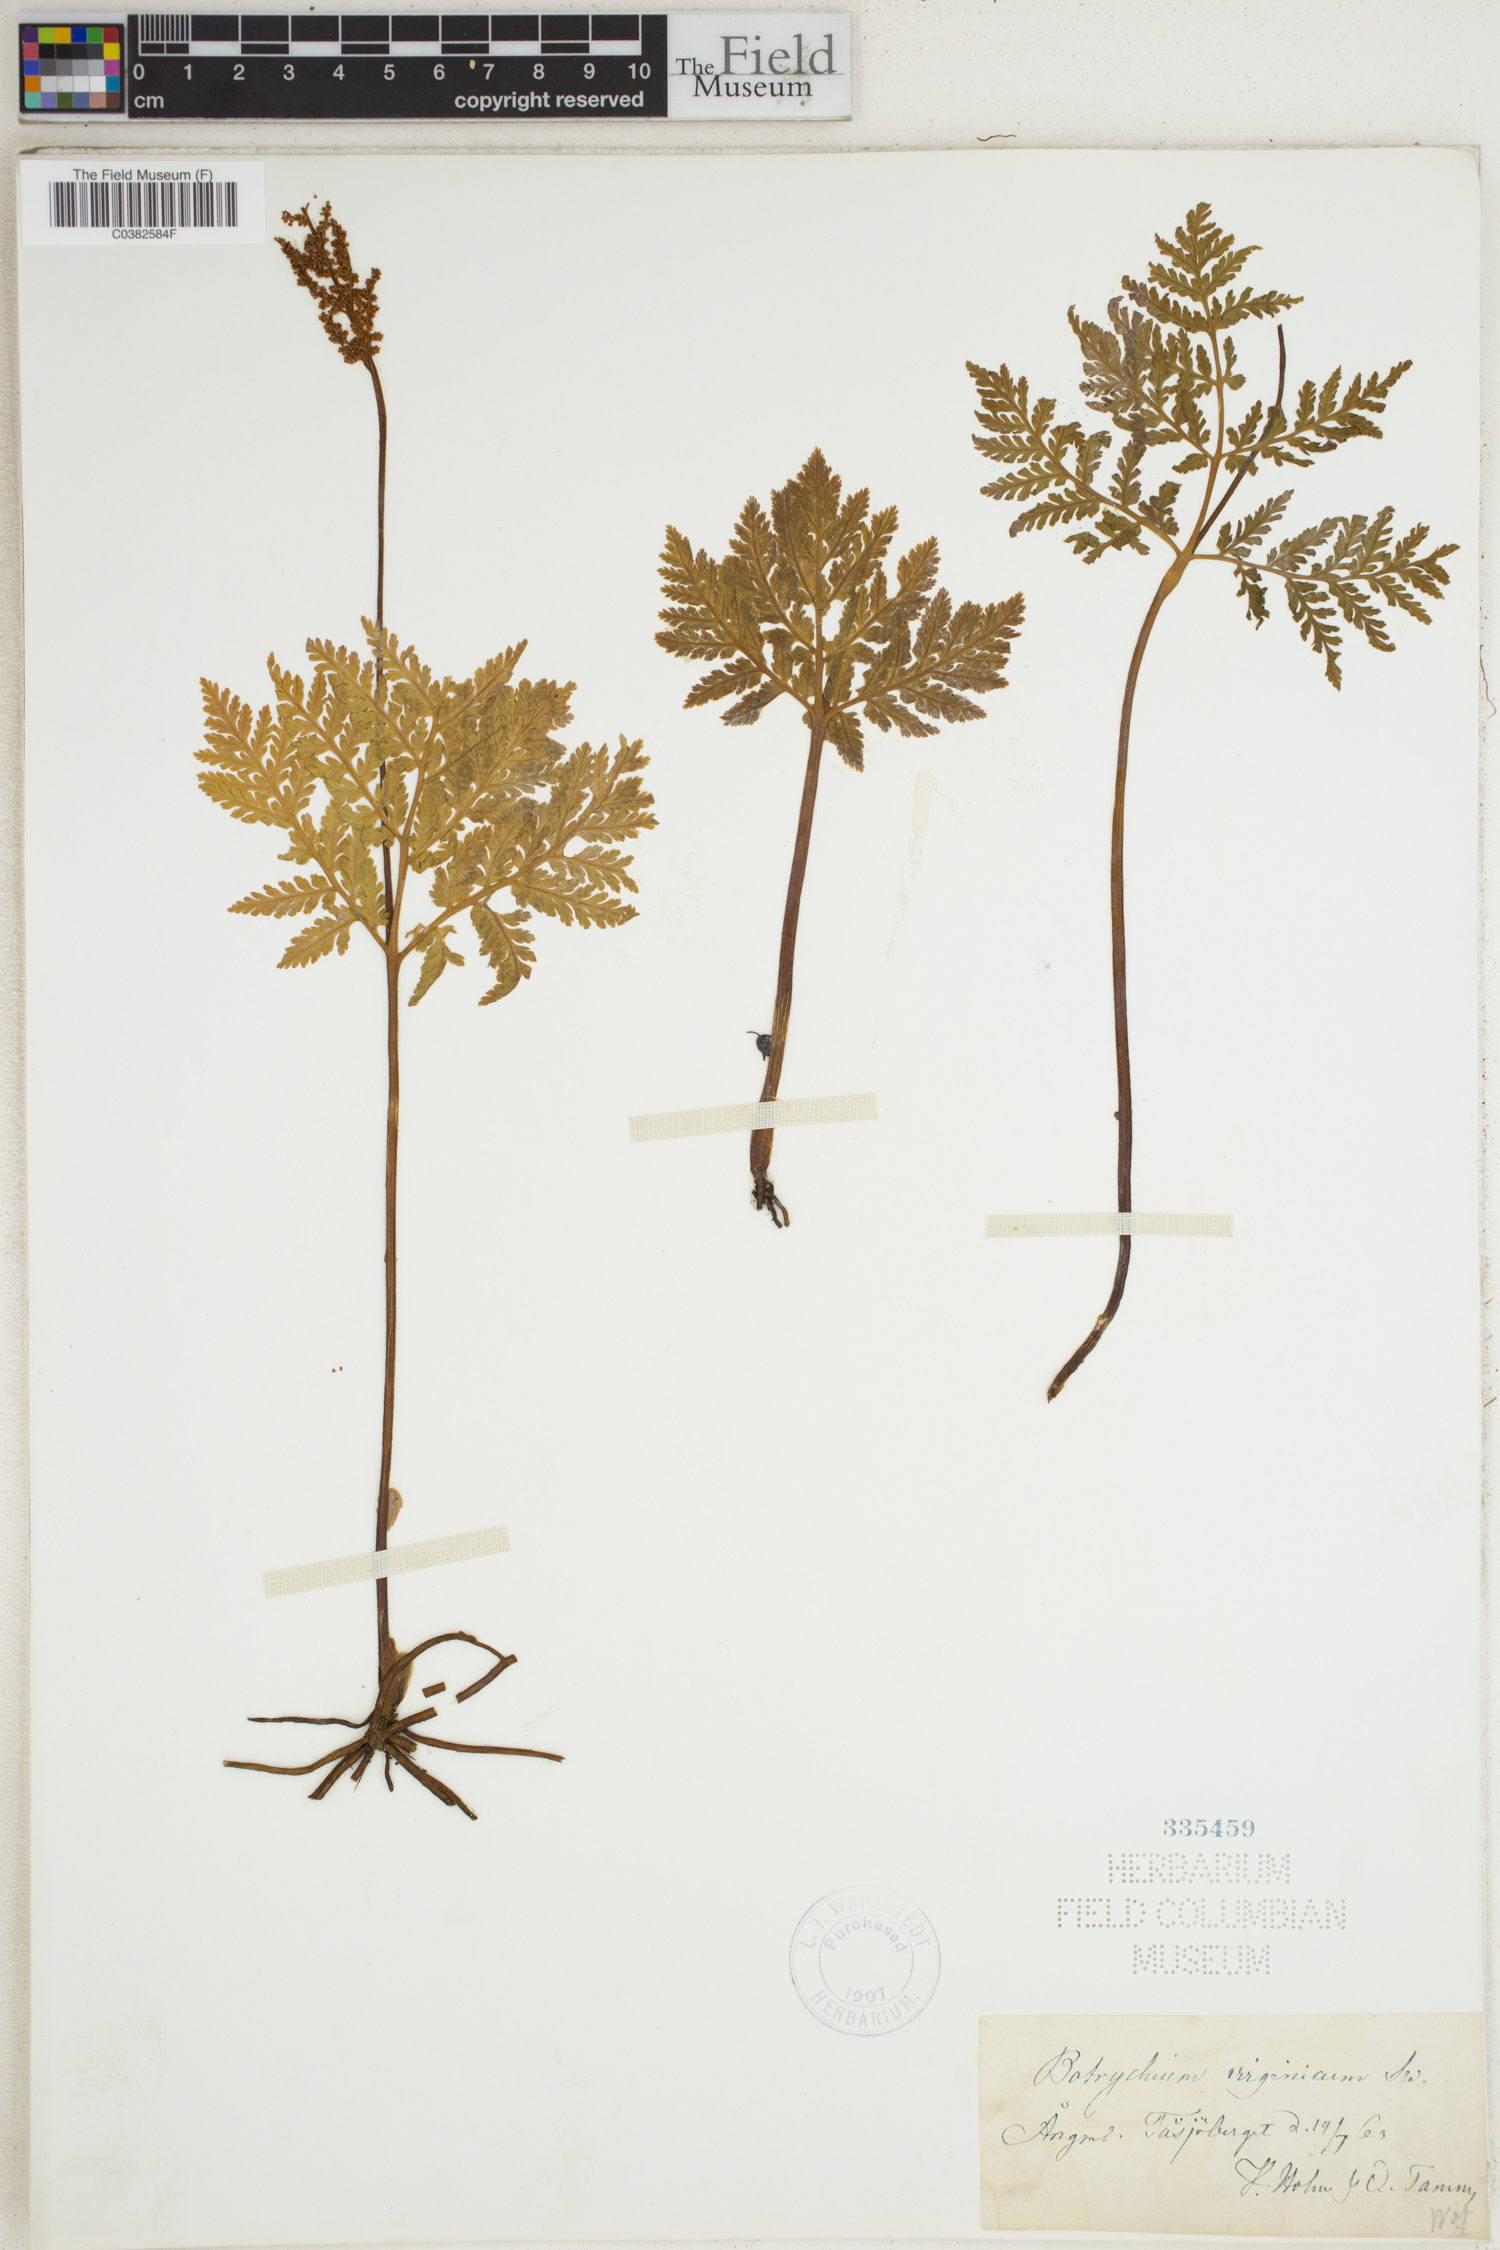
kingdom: Plantae
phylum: Tracheophyta
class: Polypodiopsida
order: Ophioglossales
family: Ophioglossaceae
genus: Botrypus
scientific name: Botrypus virginianus
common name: Common grapefern
